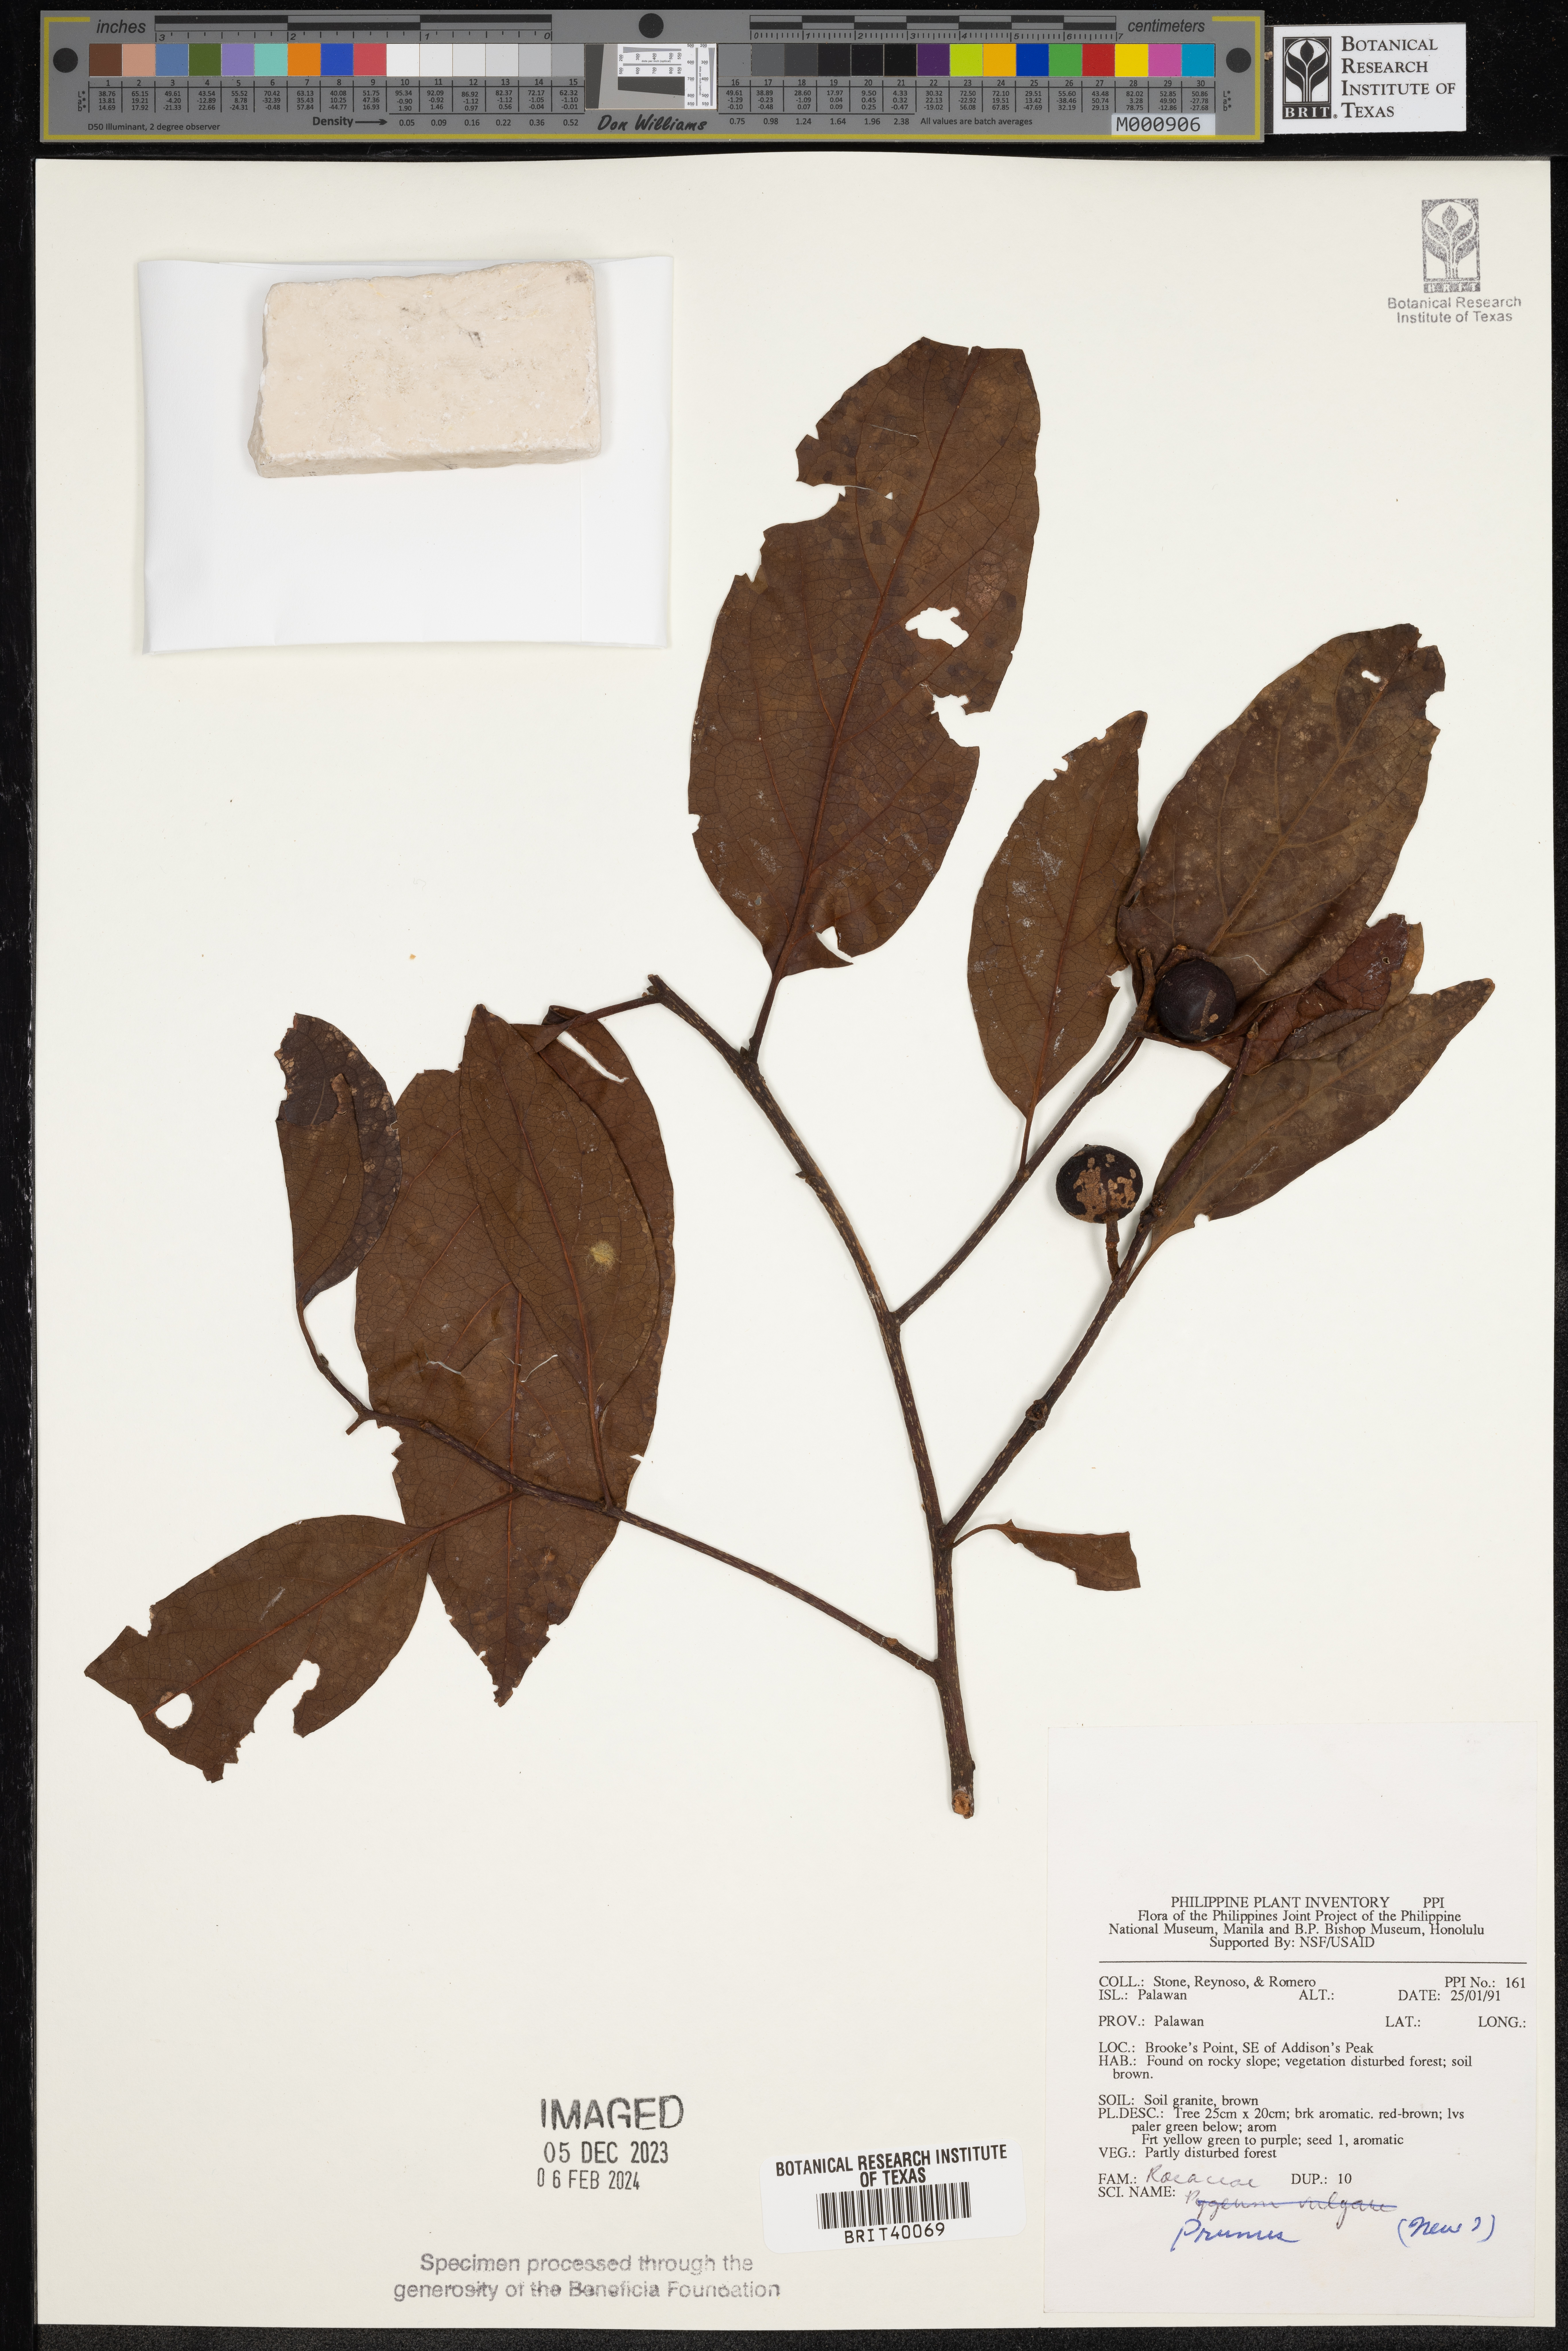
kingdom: Plantae
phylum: Tracheophyta
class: Magnoliopsida
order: Rosales
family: Rosaceae
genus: Prunus
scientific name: Prunus
